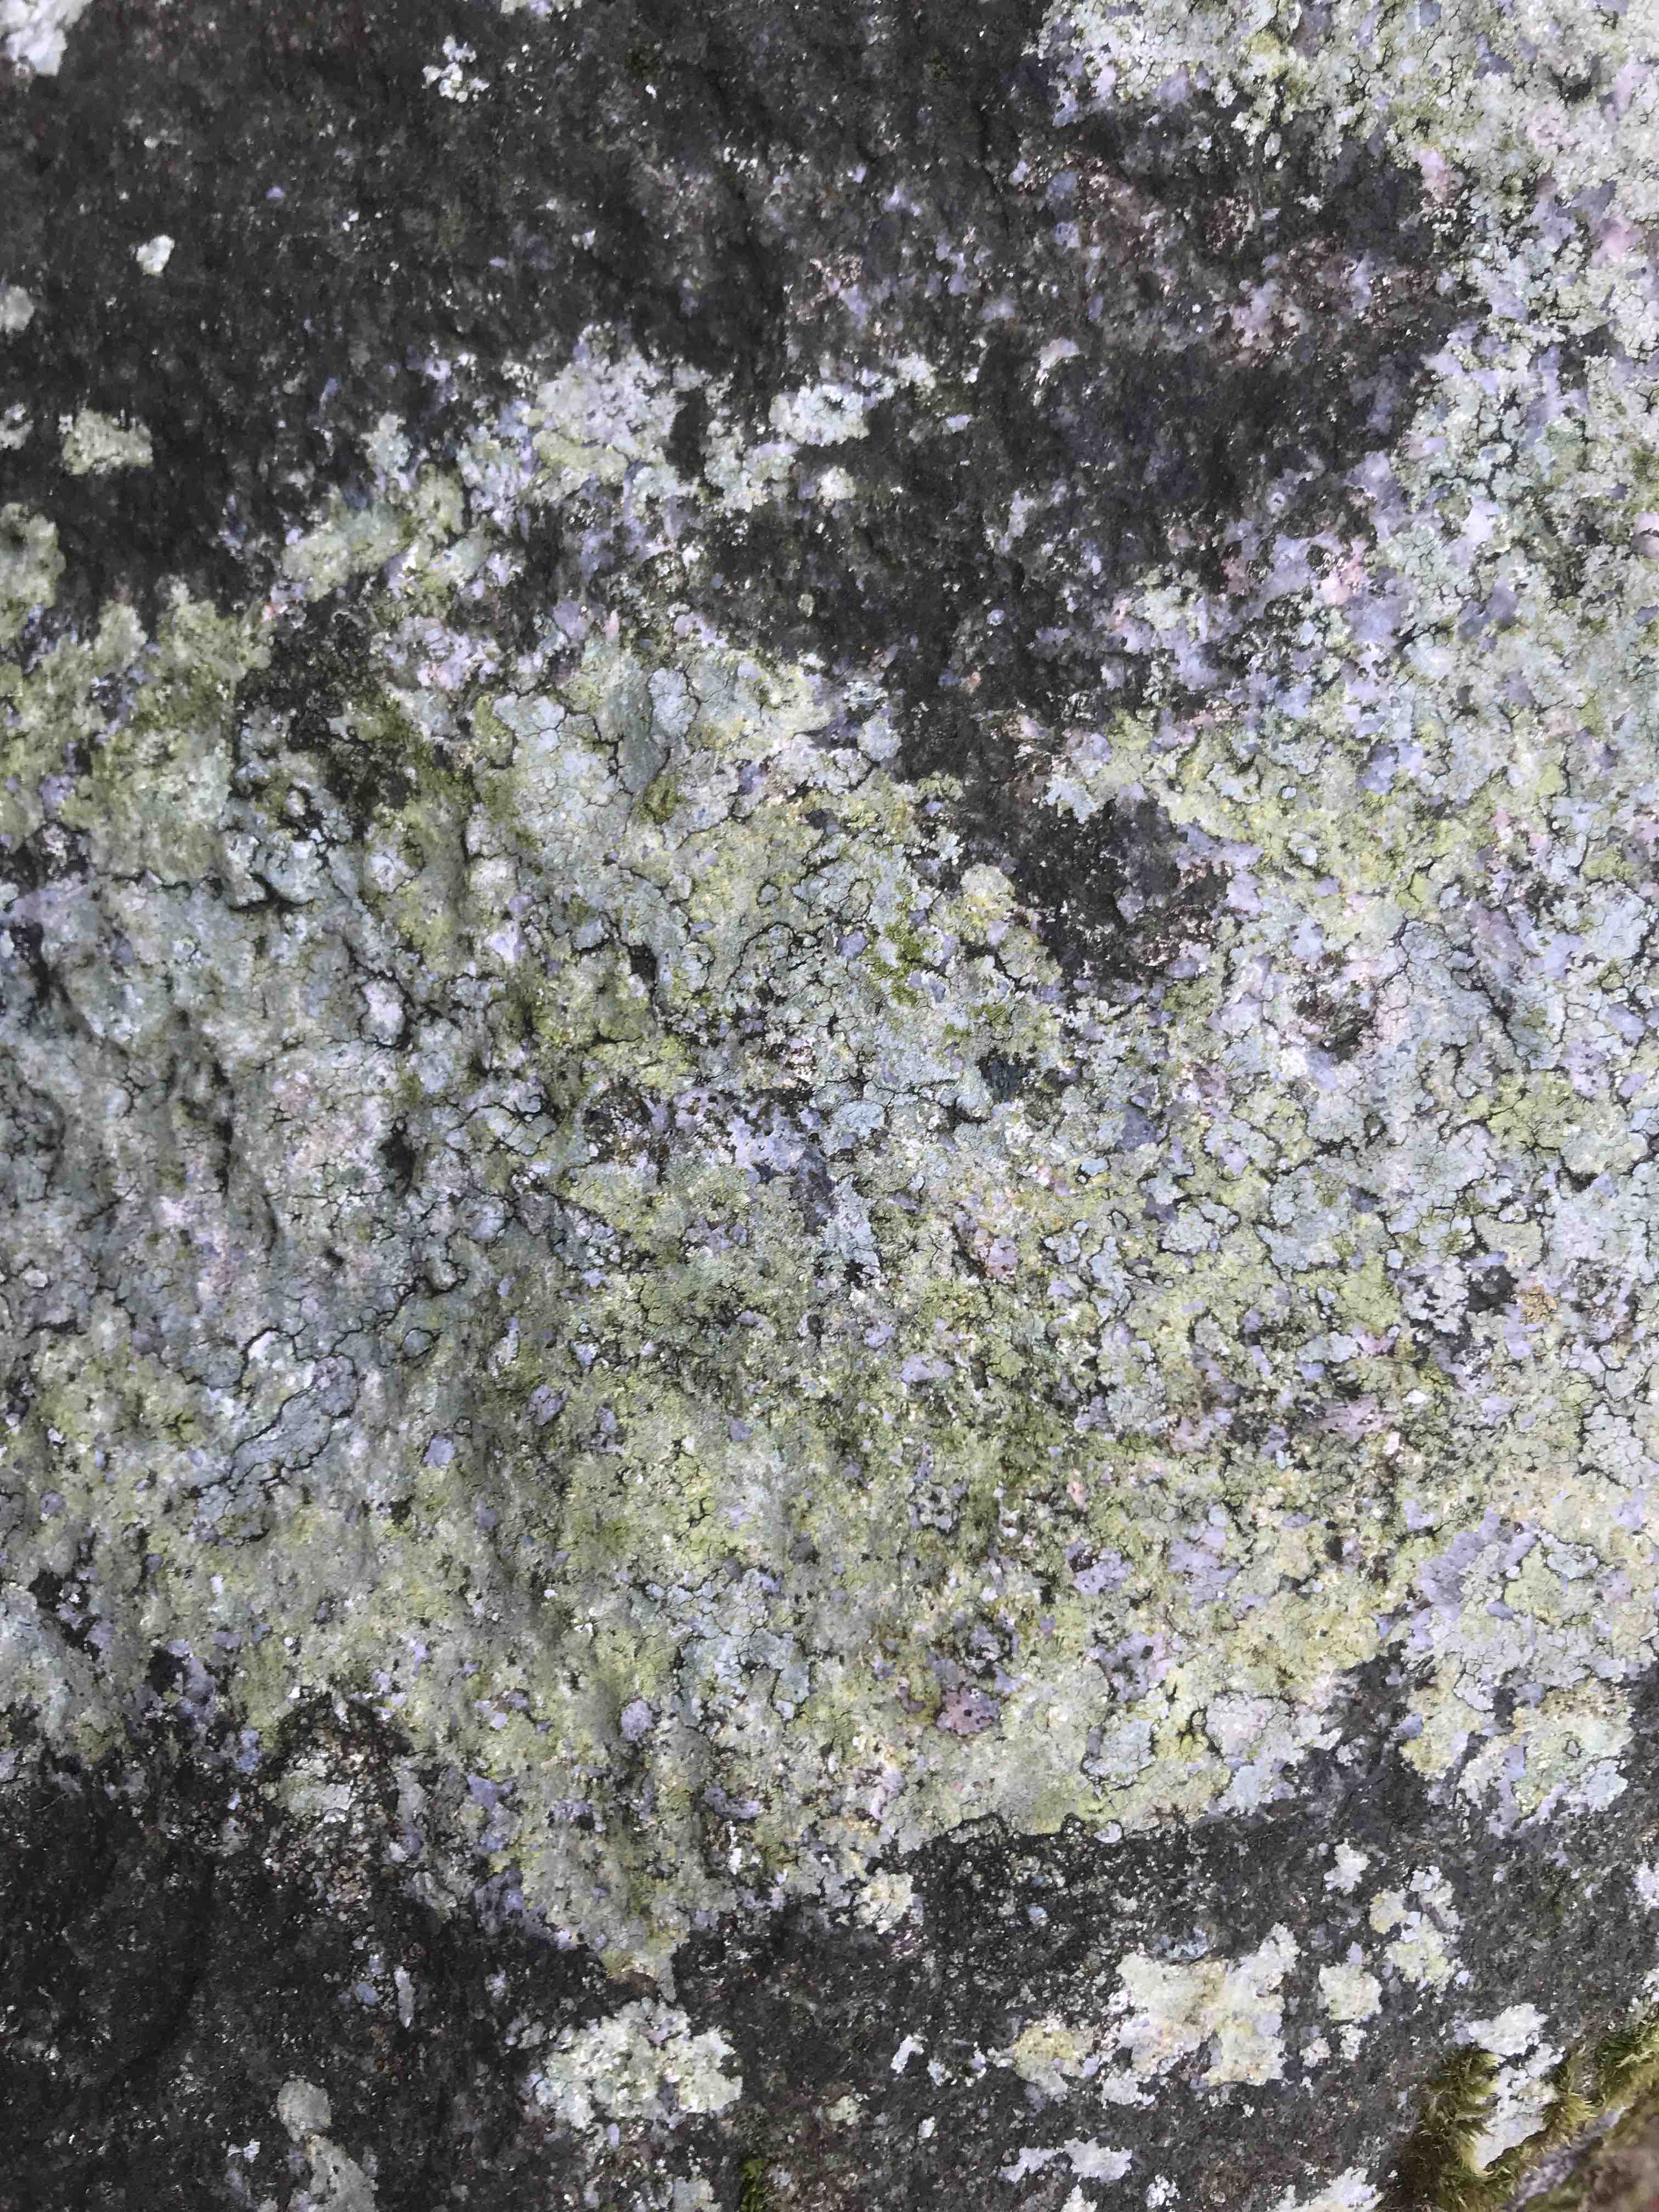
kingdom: Fungi
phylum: Ascomycota
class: Lecanoromycetes
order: Lecanorales
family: Parmeliaceae
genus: Lichen
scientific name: Lichen
